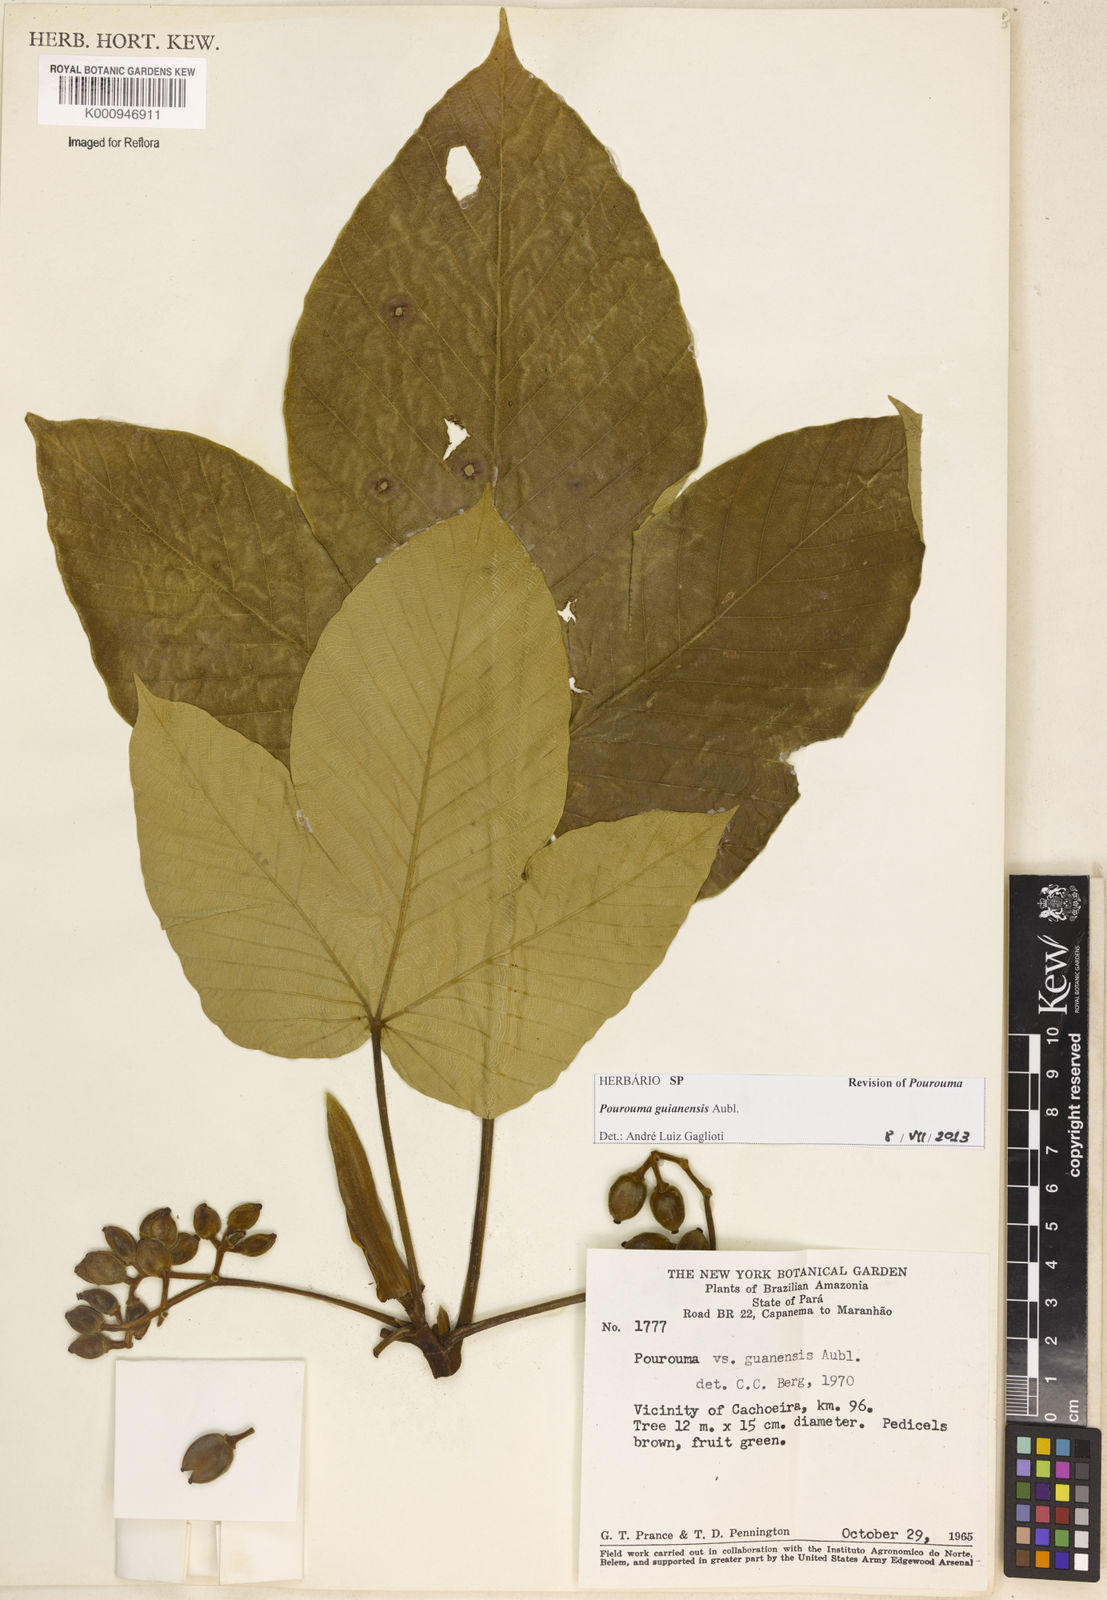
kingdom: Plantae
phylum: Tracheophyta
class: Magnoliopsida
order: Rosales
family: Urticaceae
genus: Pourouma
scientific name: Pourouma guianensis
